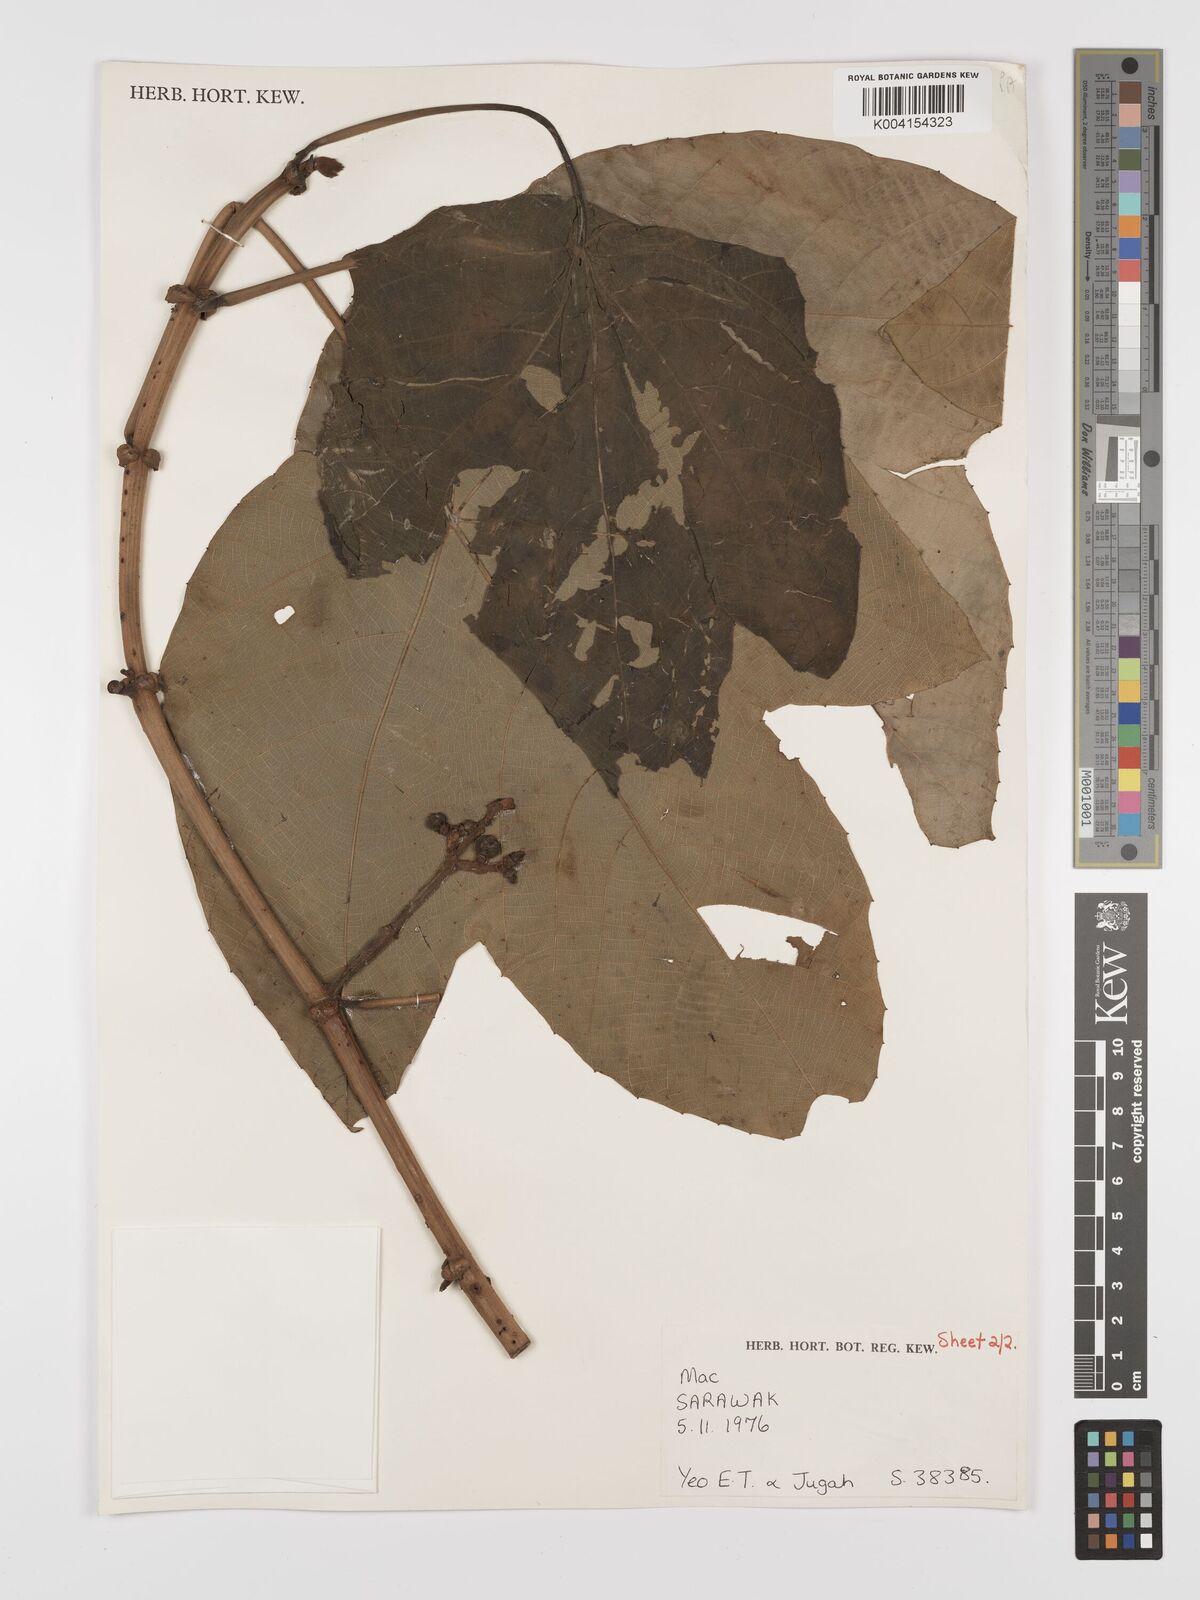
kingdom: Plantae
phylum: Tracheophyta
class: Magnoliopsida
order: Malpighiales
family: Euphorbiaceae
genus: Macaranga
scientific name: Macaranga trachyphylla
